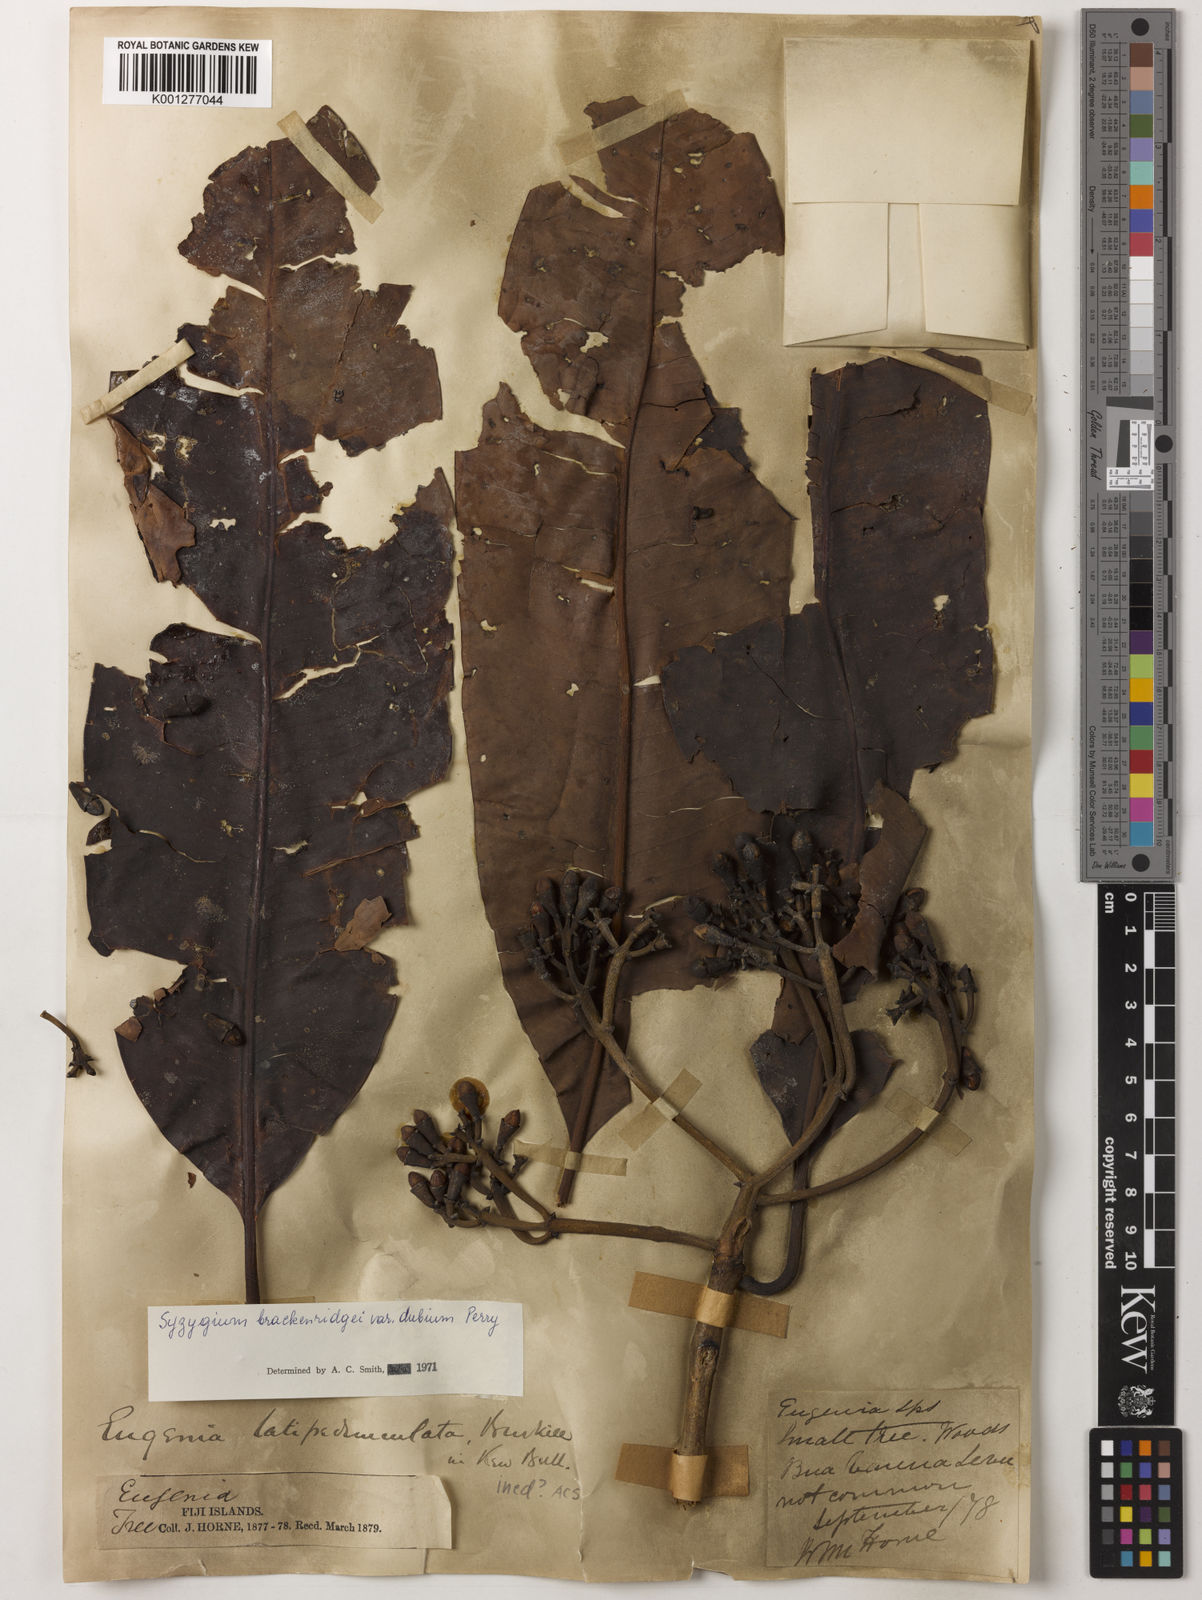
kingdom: Plantae
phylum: Tracheophyta
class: Magnoliopsida
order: Myrtales
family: Myrtaceae
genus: Syzygium
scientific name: Syzygium
